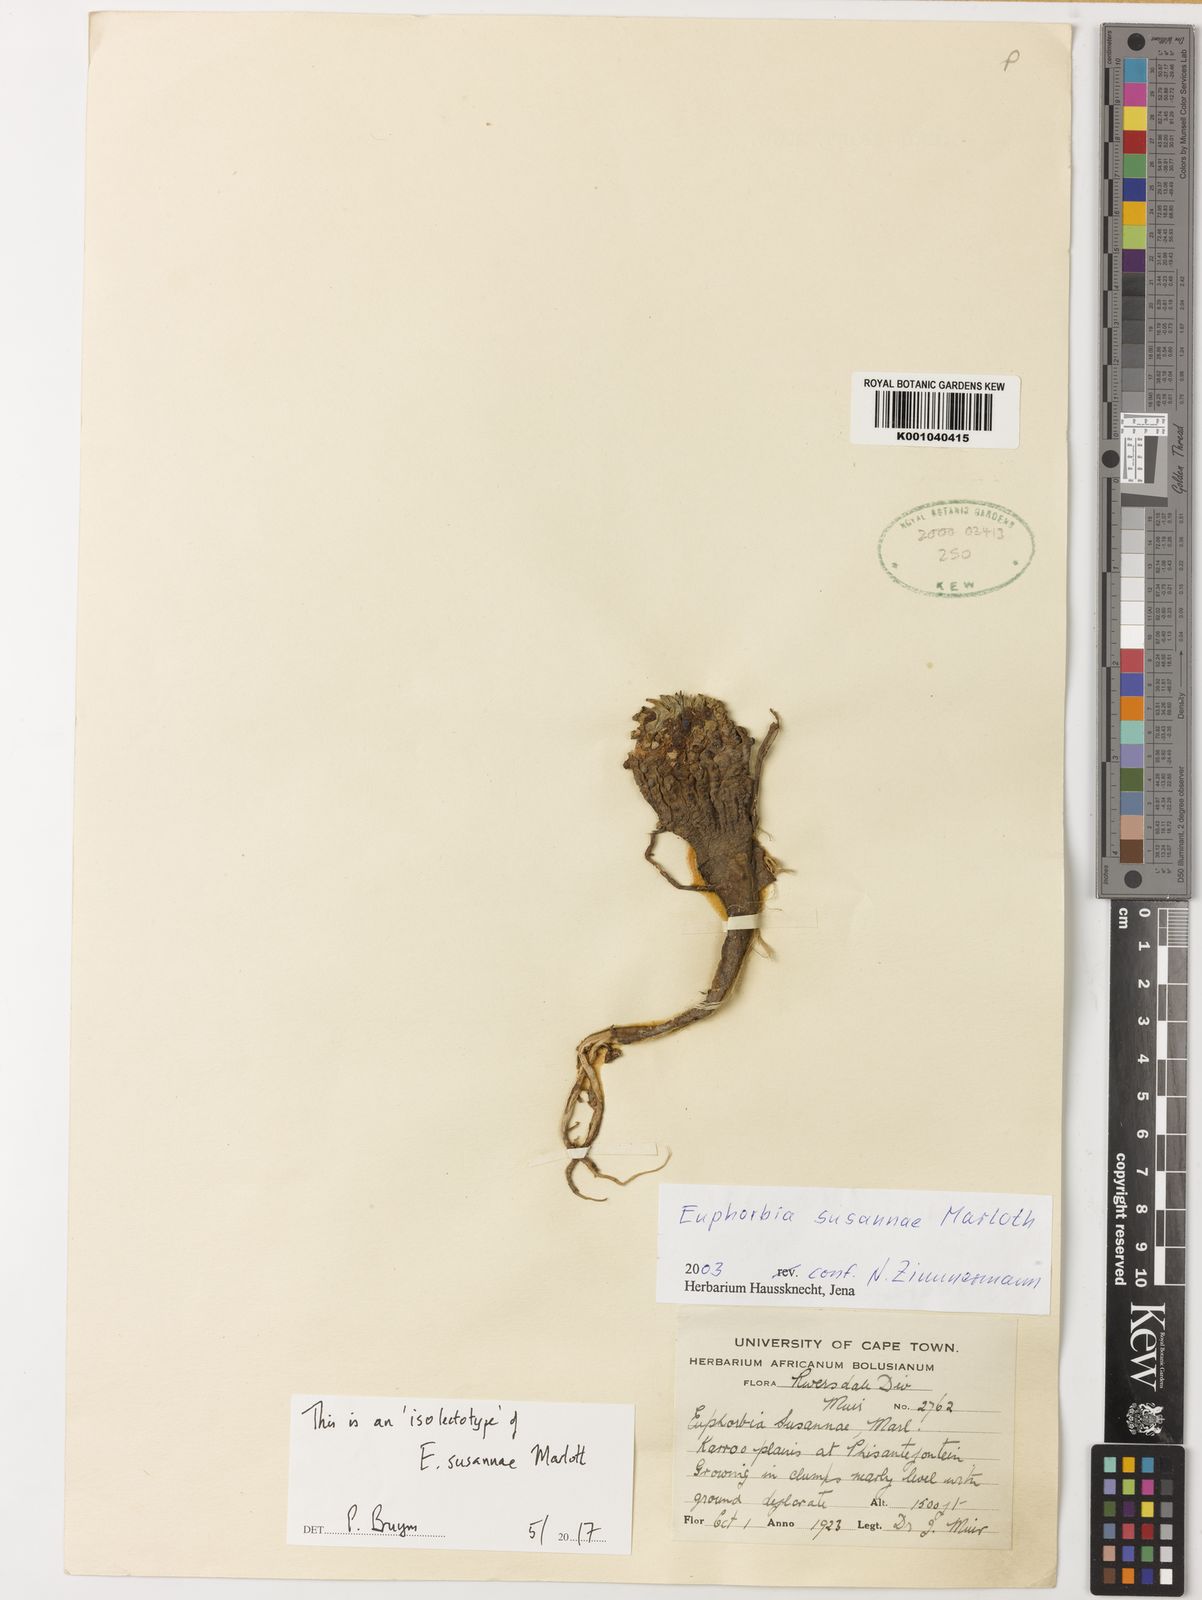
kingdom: Plantae
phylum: Tracheophyta
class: Magnoliopsida
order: Malpighiales
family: Euphorbiaceae
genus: Euphorbia
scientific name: Euphorbia susannae
